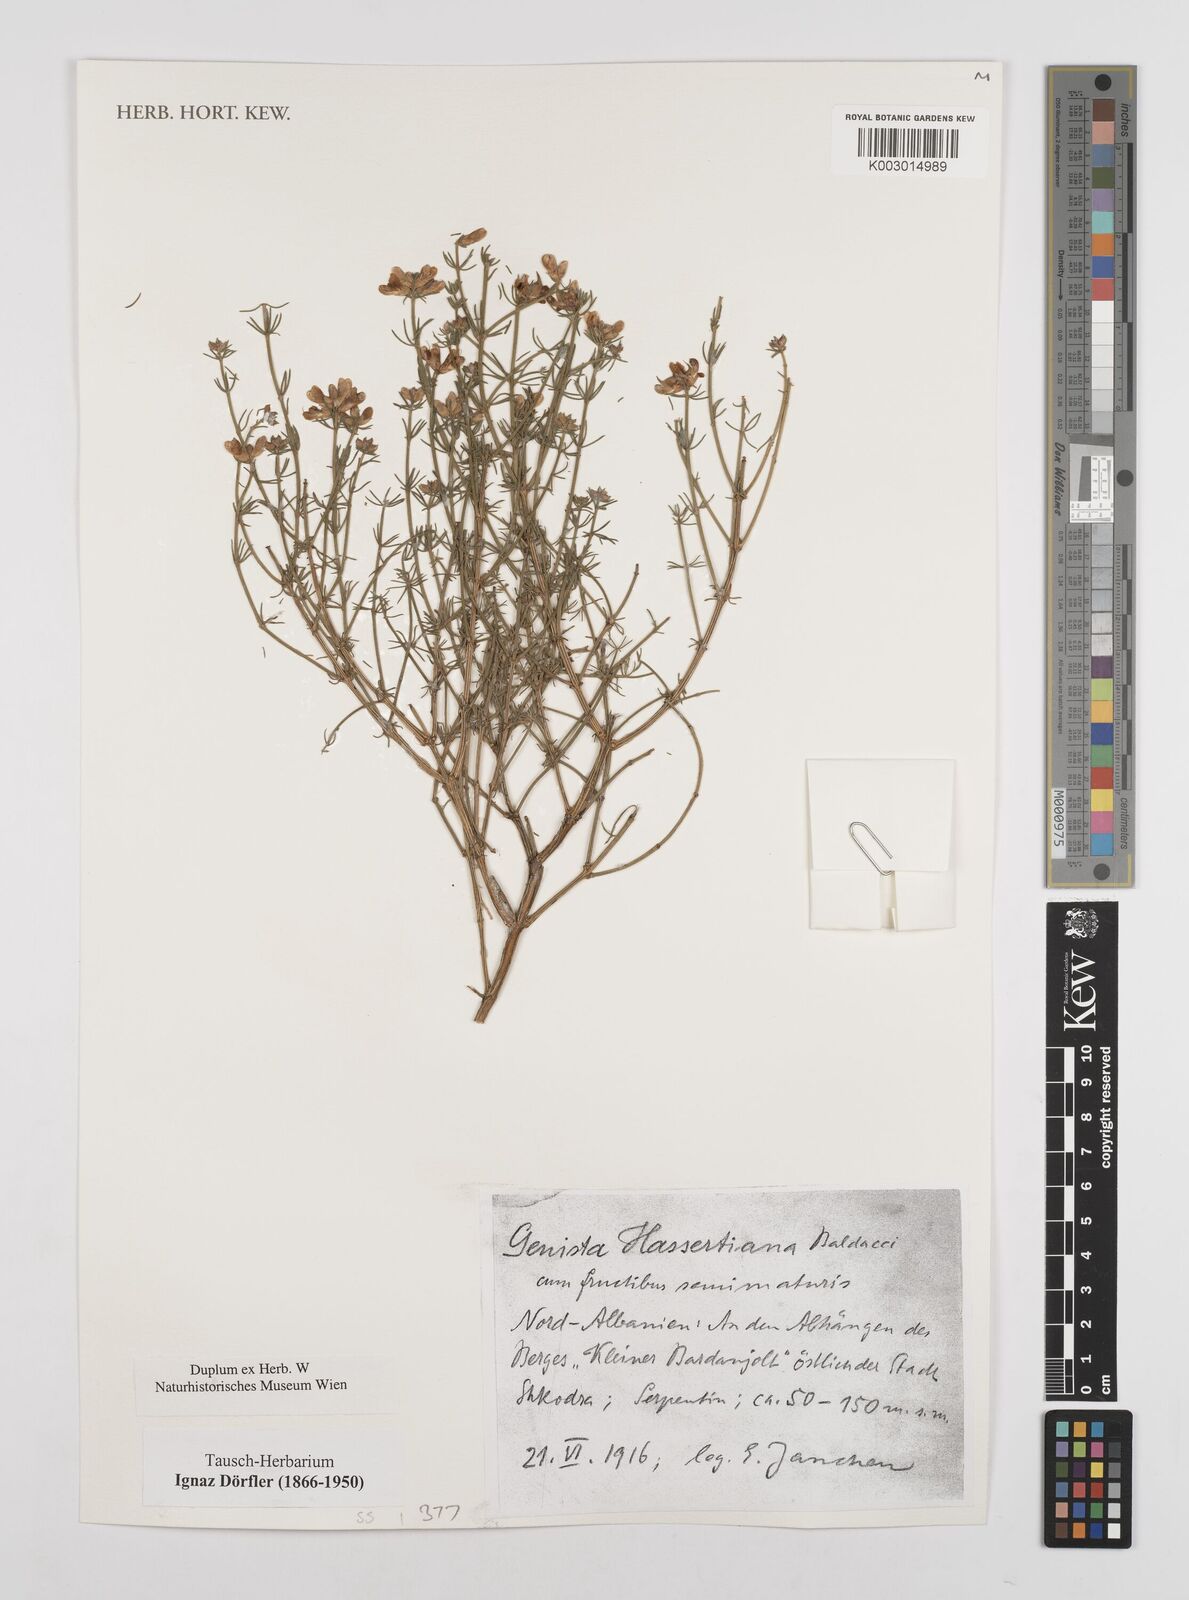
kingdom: Plantae
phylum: Tracheophyta
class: Magnoliopsida
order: Fabales
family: Fabaceae
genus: Genista
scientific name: Genista hassertiana
